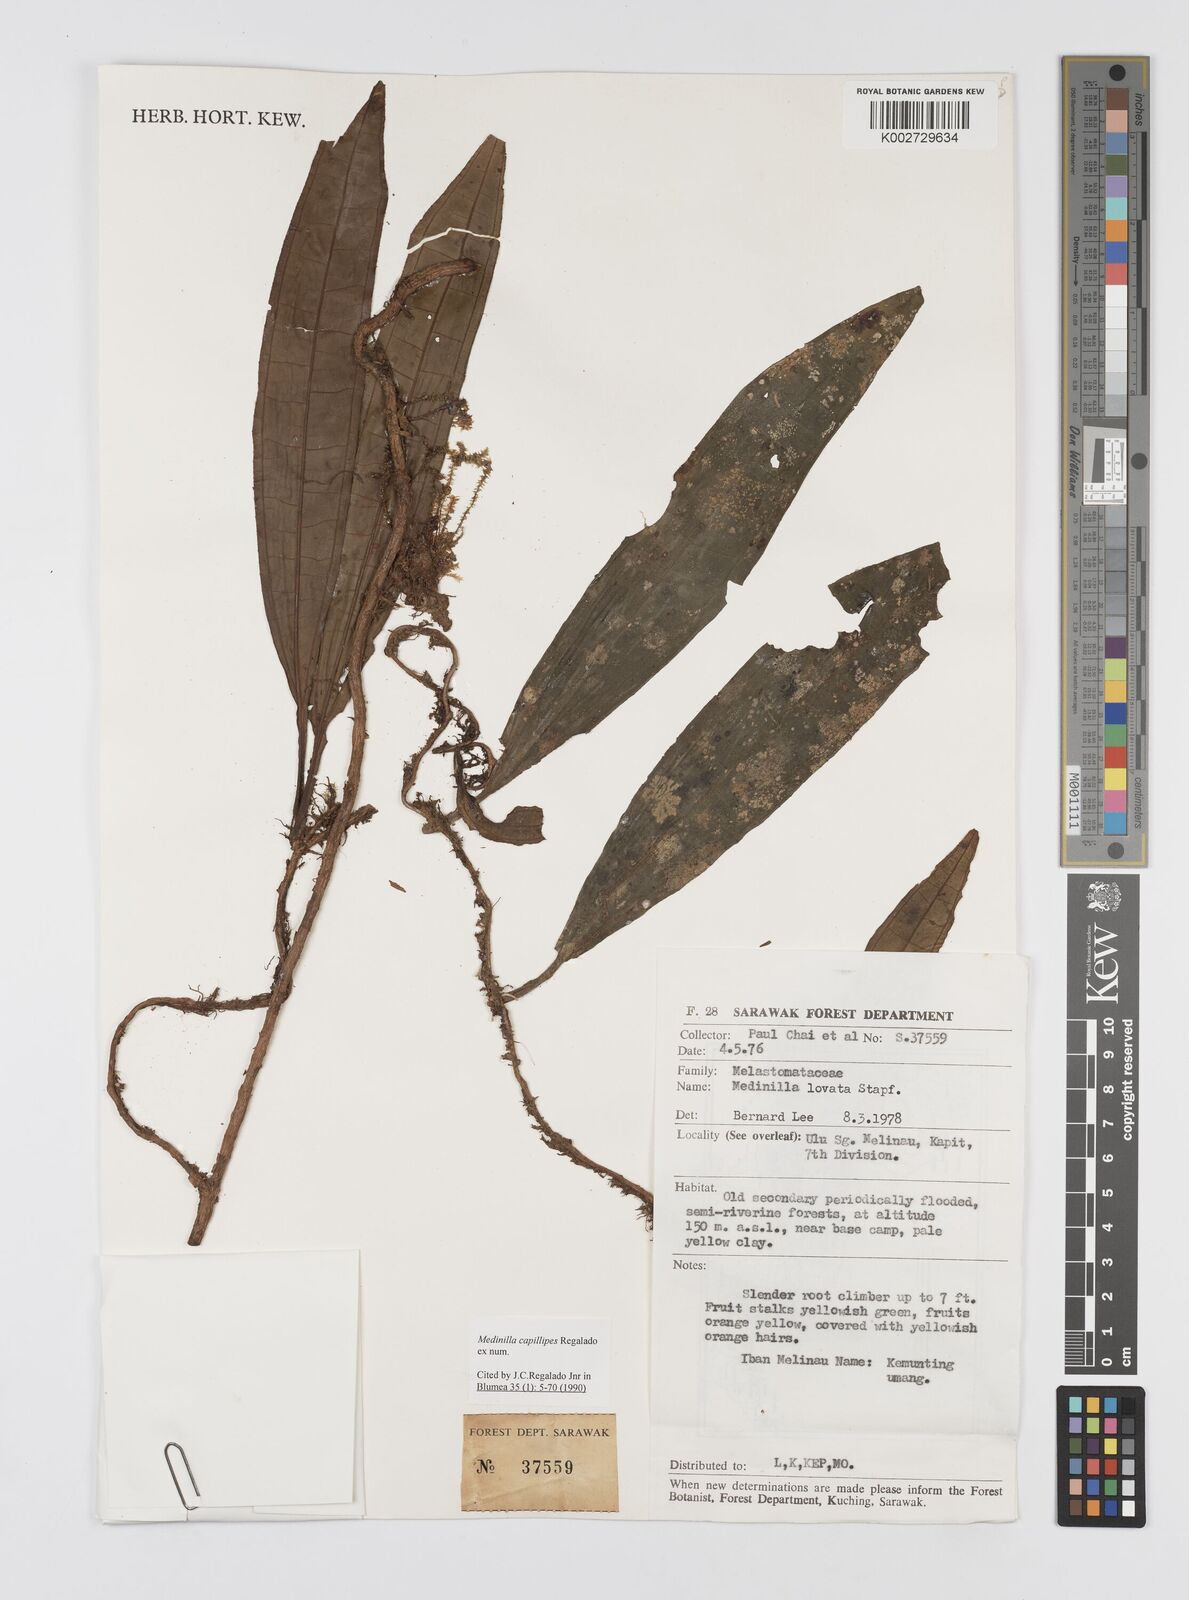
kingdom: Plantae
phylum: Tracheophyta
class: Magnoliopsida
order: Myrtales
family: Melastomataceae
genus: Heteroblemma
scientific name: Heteroblemma capillipes
